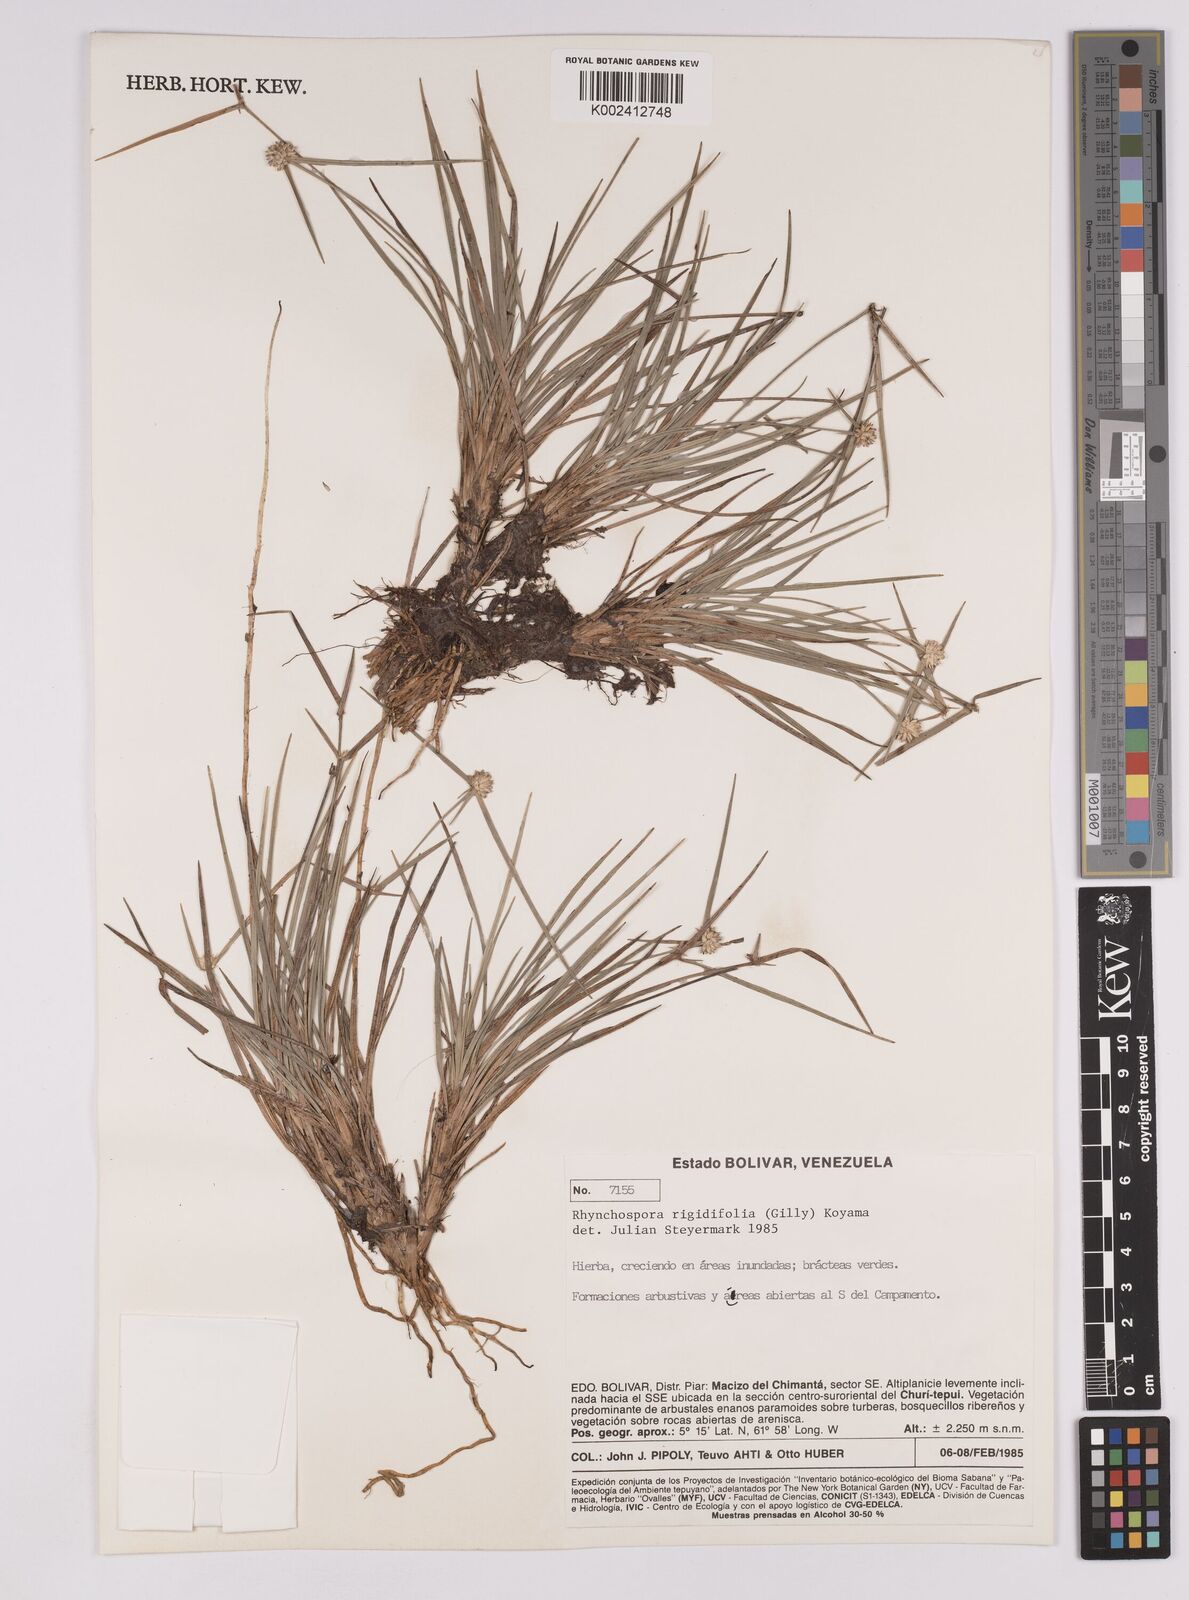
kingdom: Plantae
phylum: Tracheophyta
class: Liliopsida
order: Poales
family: Cyperaceae
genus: Rhynchospora
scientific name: Rhynchospora rigidifolia
